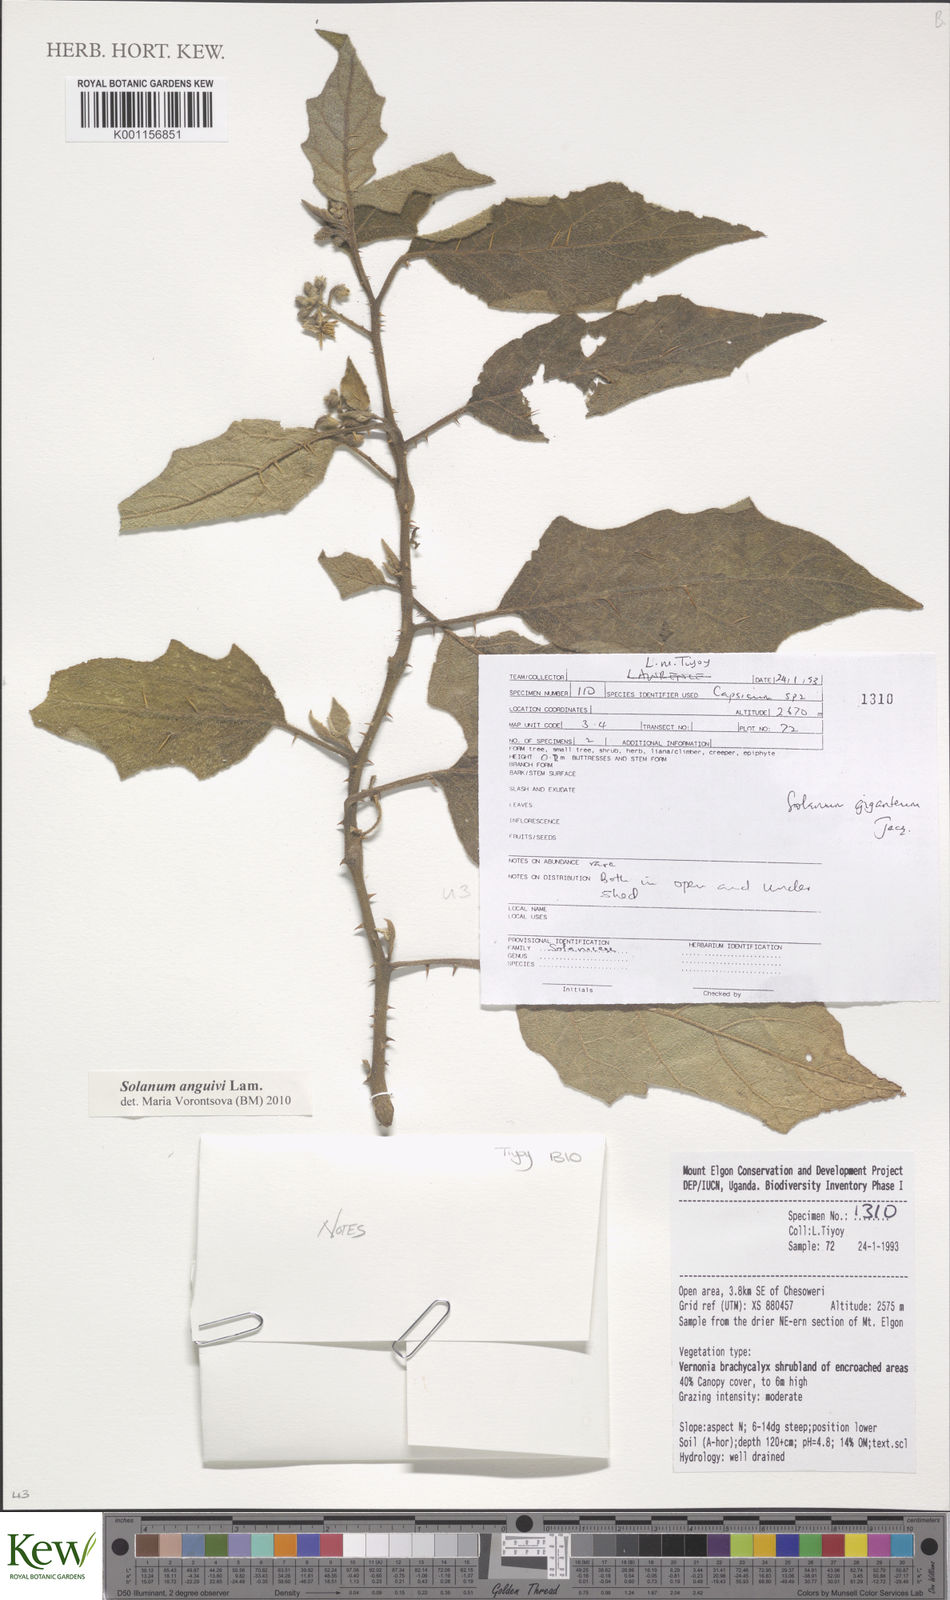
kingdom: Plantae
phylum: Tracheophyta
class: Magnoliopsida
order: Solanales
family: Solanaceae
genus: Solanum
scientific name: Solanum anguivi
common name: Forest bitterberry
